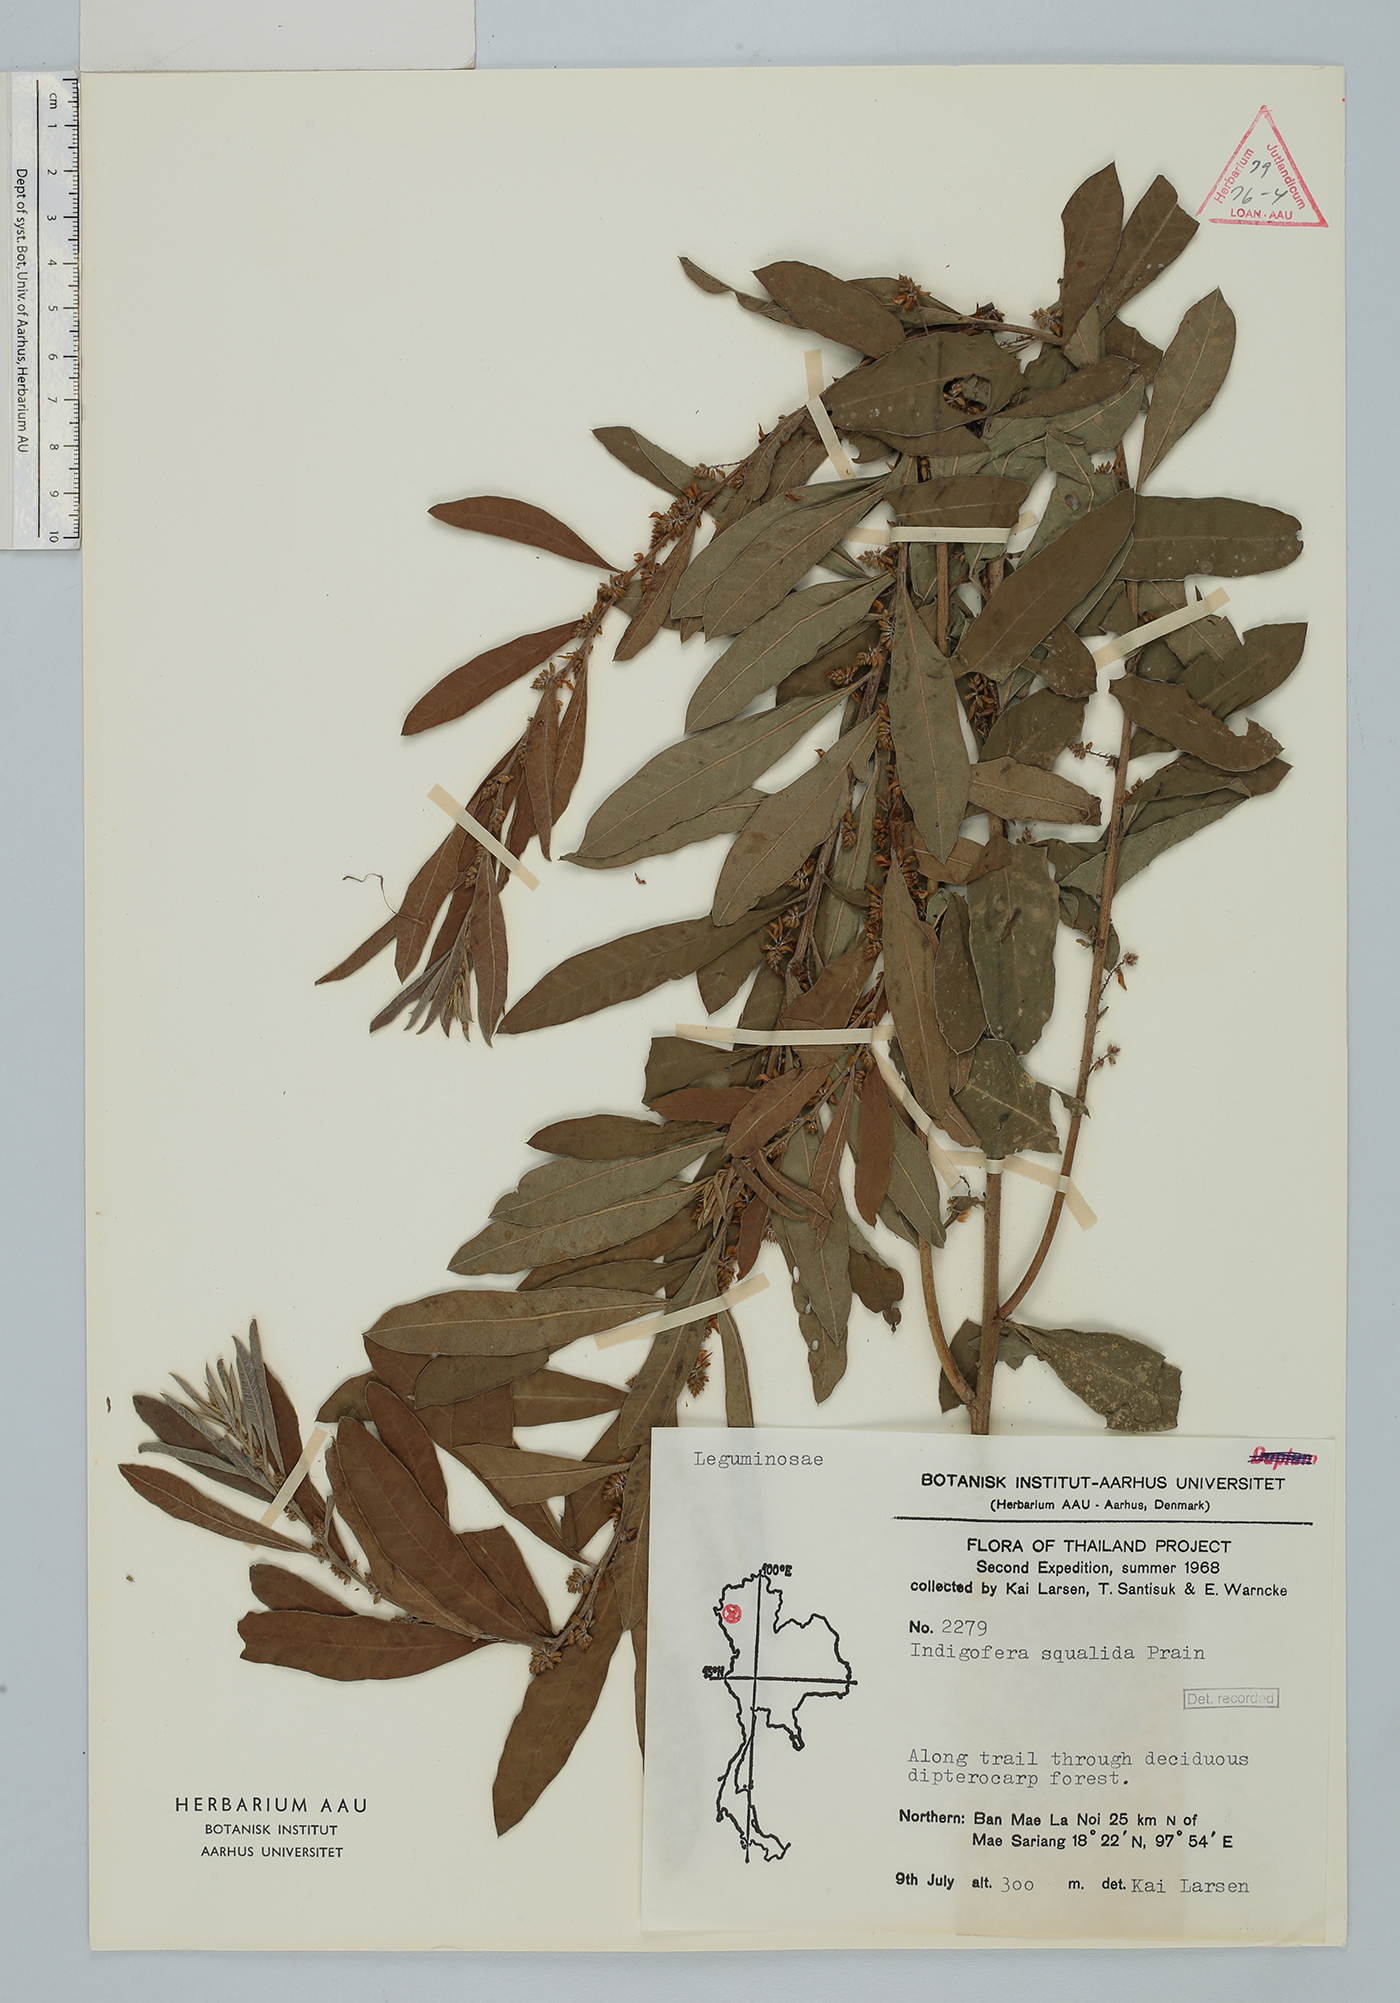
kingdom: Plantae
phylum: Tracheophyta
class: Magnoliopsida
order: Fabales
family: Fabaceae
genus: Indigofera
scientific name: Indigofera squalida
